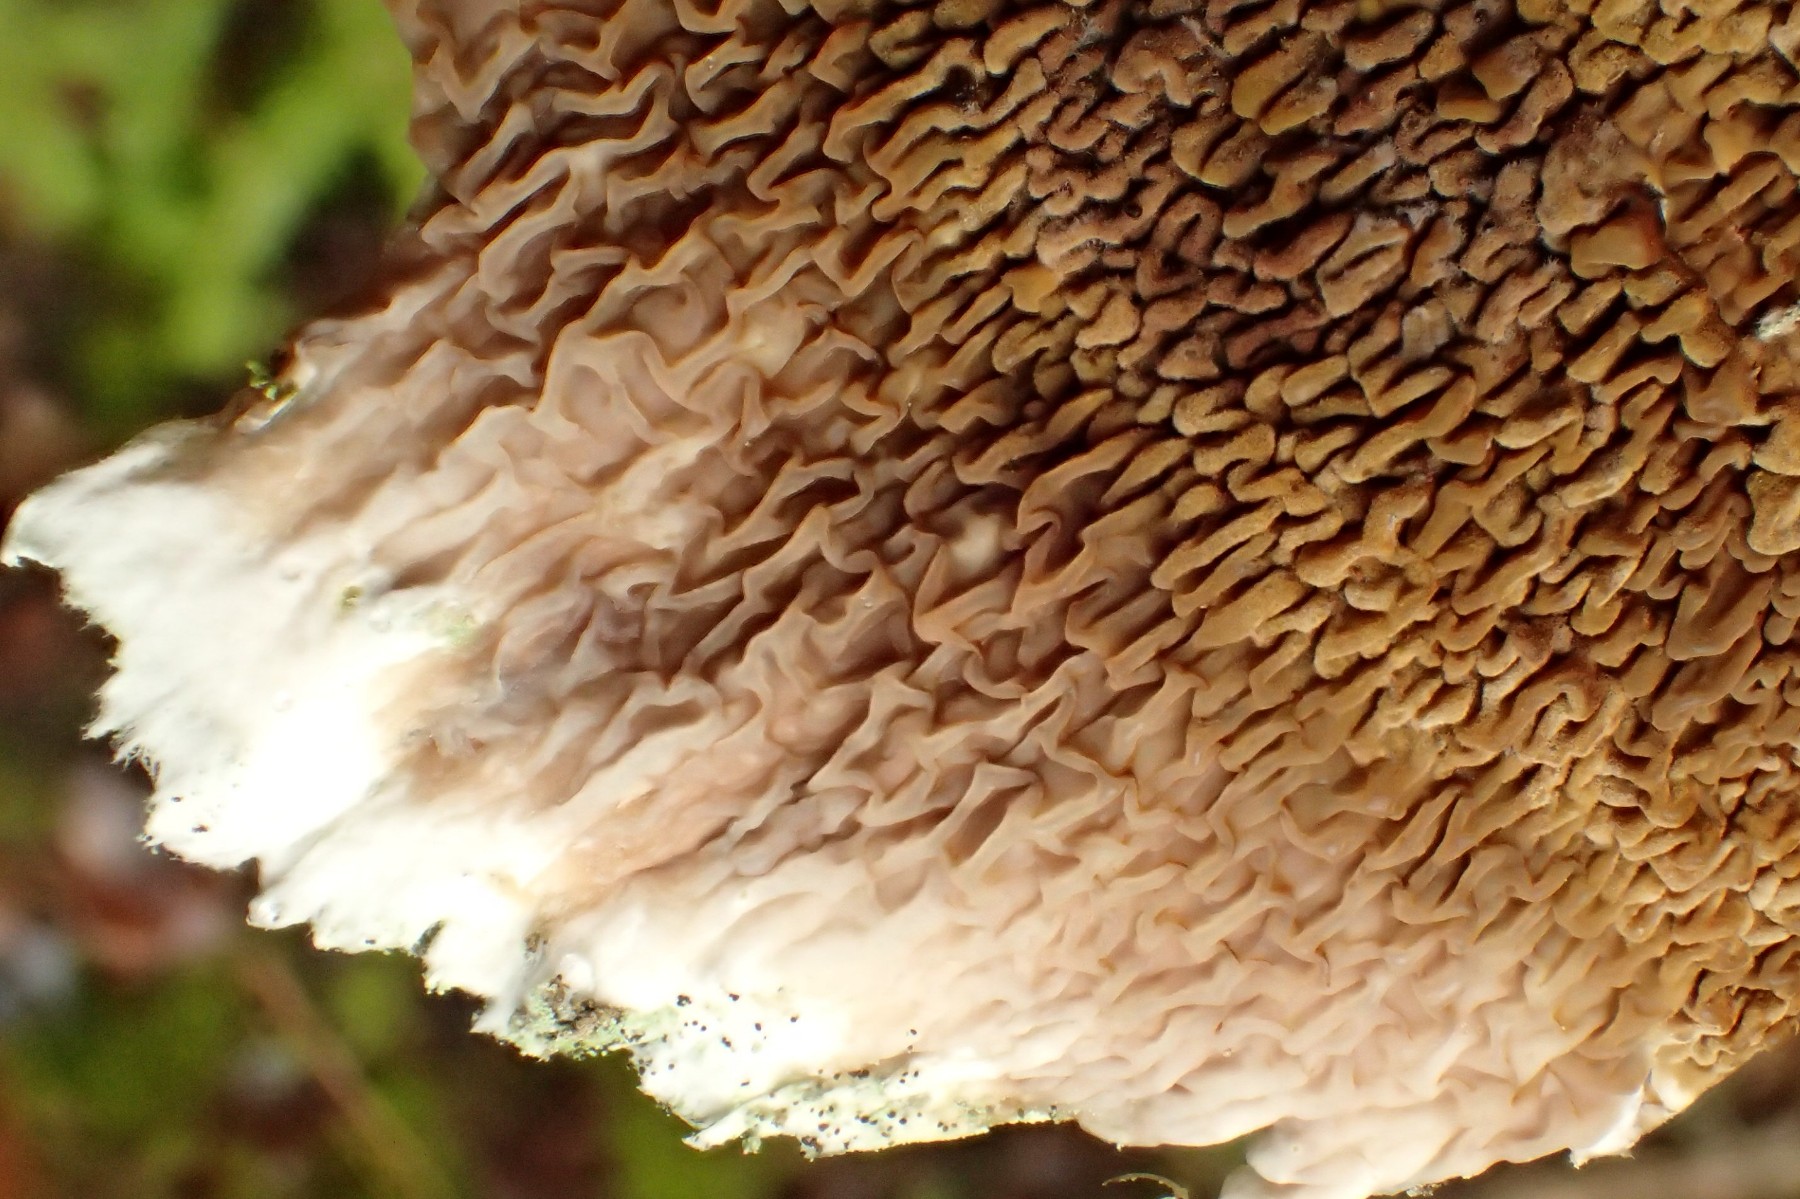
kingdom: Fungi
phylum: Basidiomycota
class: Agaricomycetes
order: Boletales
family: Serpulaceae
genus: Serpula
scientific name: Serpula himantioides
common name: tyndkødet hussvamp
